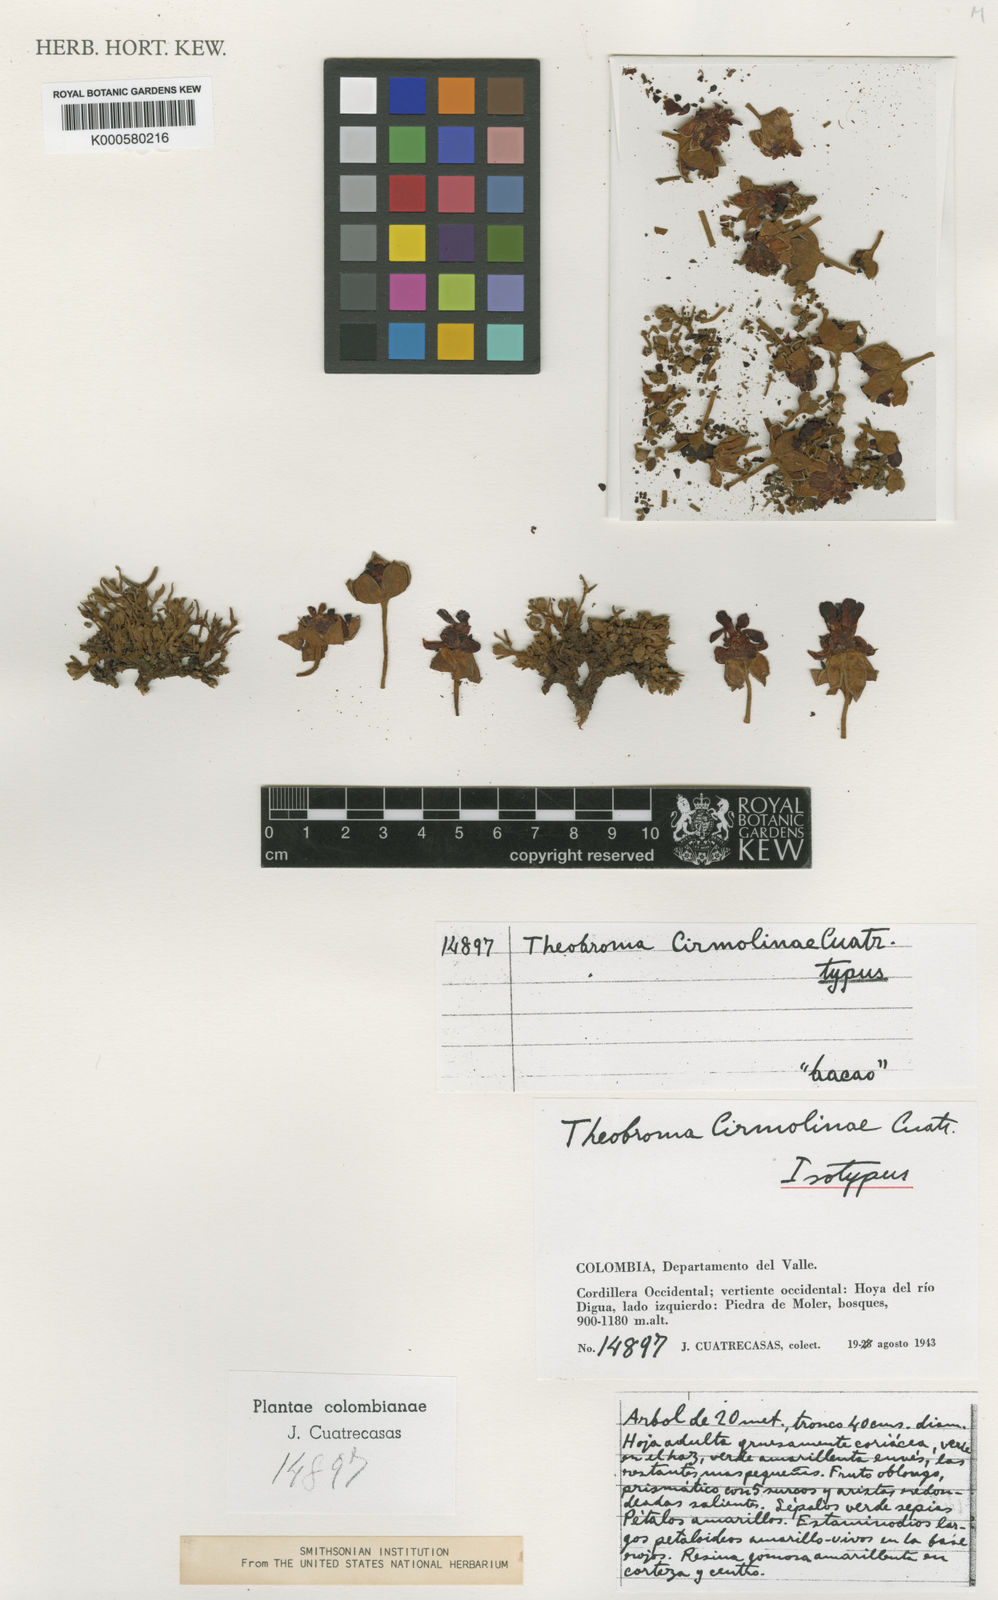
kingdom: Plantae
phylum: Tracheophyta
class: Magnoliopsida
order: Malvales
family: Malvaceae
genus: Theobroma
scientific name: Theobroma cirmolinae
